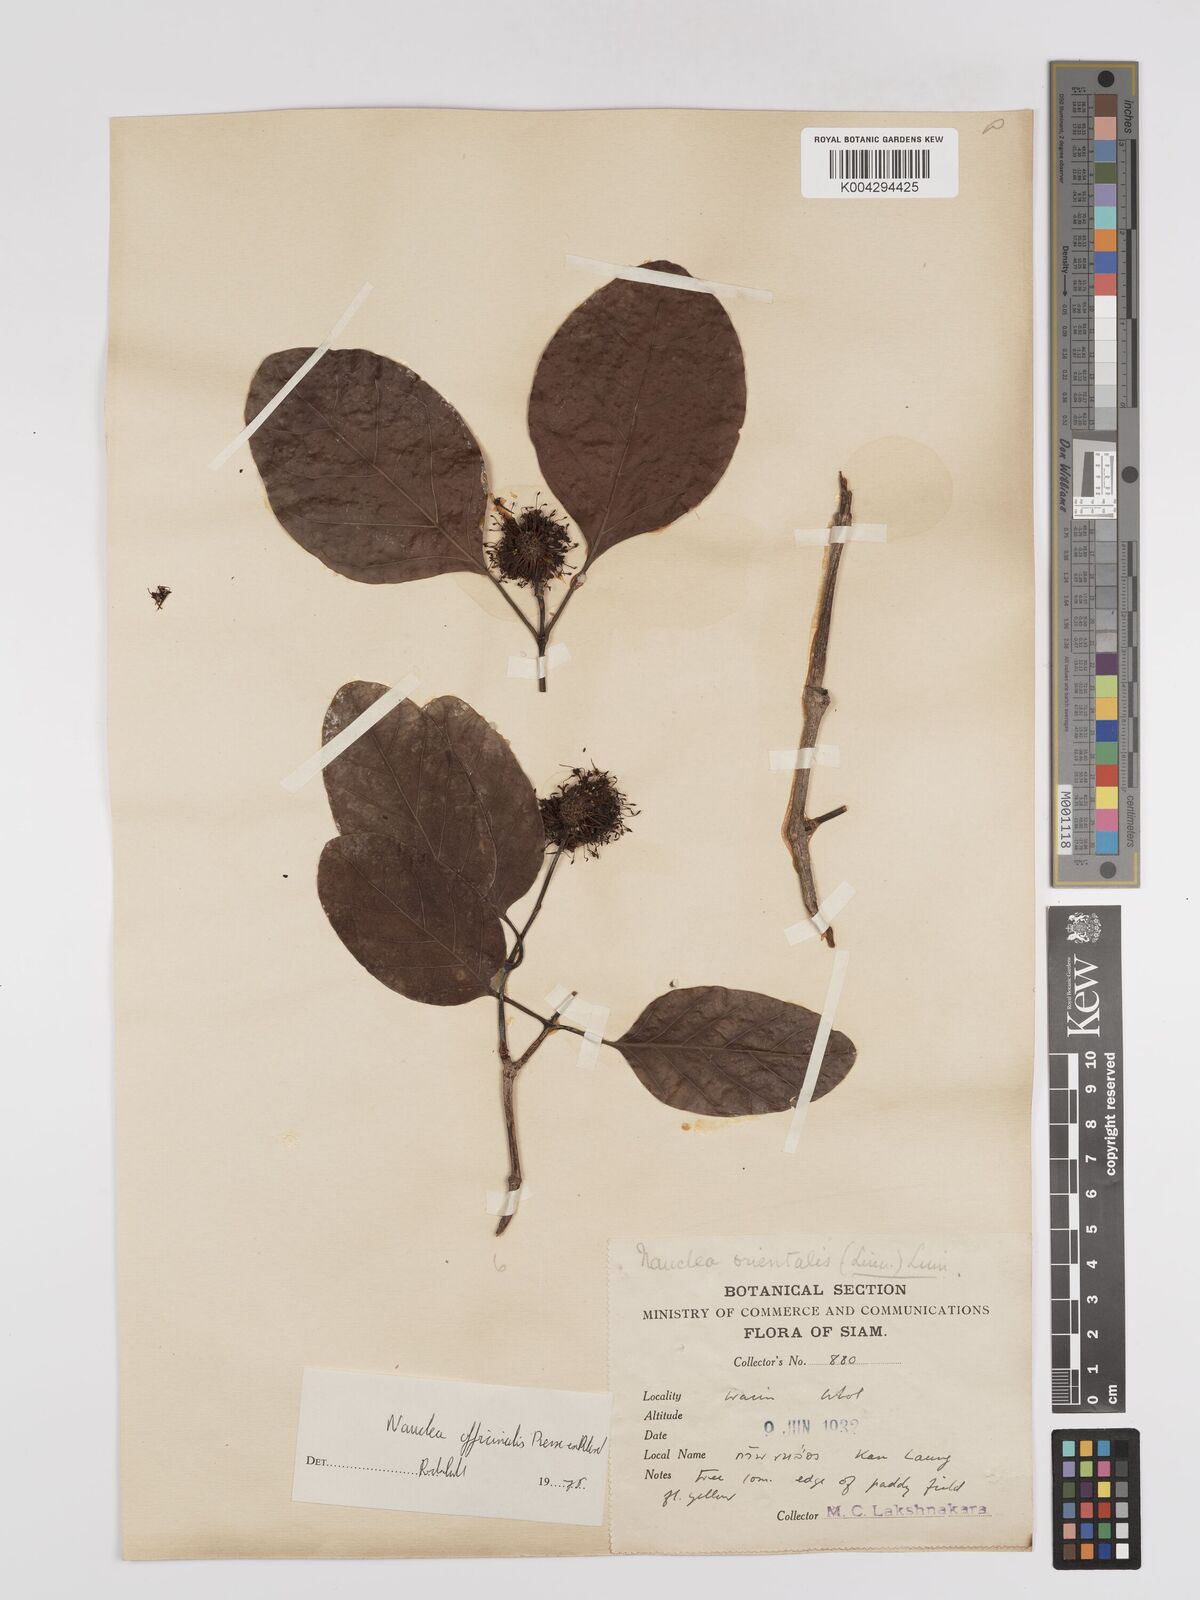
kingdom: Plantae
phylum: Tracheophyta
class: Magnoliopsida
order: Gentianales
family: Rubiaceae
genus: Nauclea
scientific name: Nauclea officinalis
